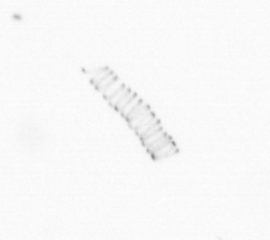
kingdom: Chromista
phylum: Ochrophyta
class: Bacillariophyceae
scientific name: Bacillariophyceae
